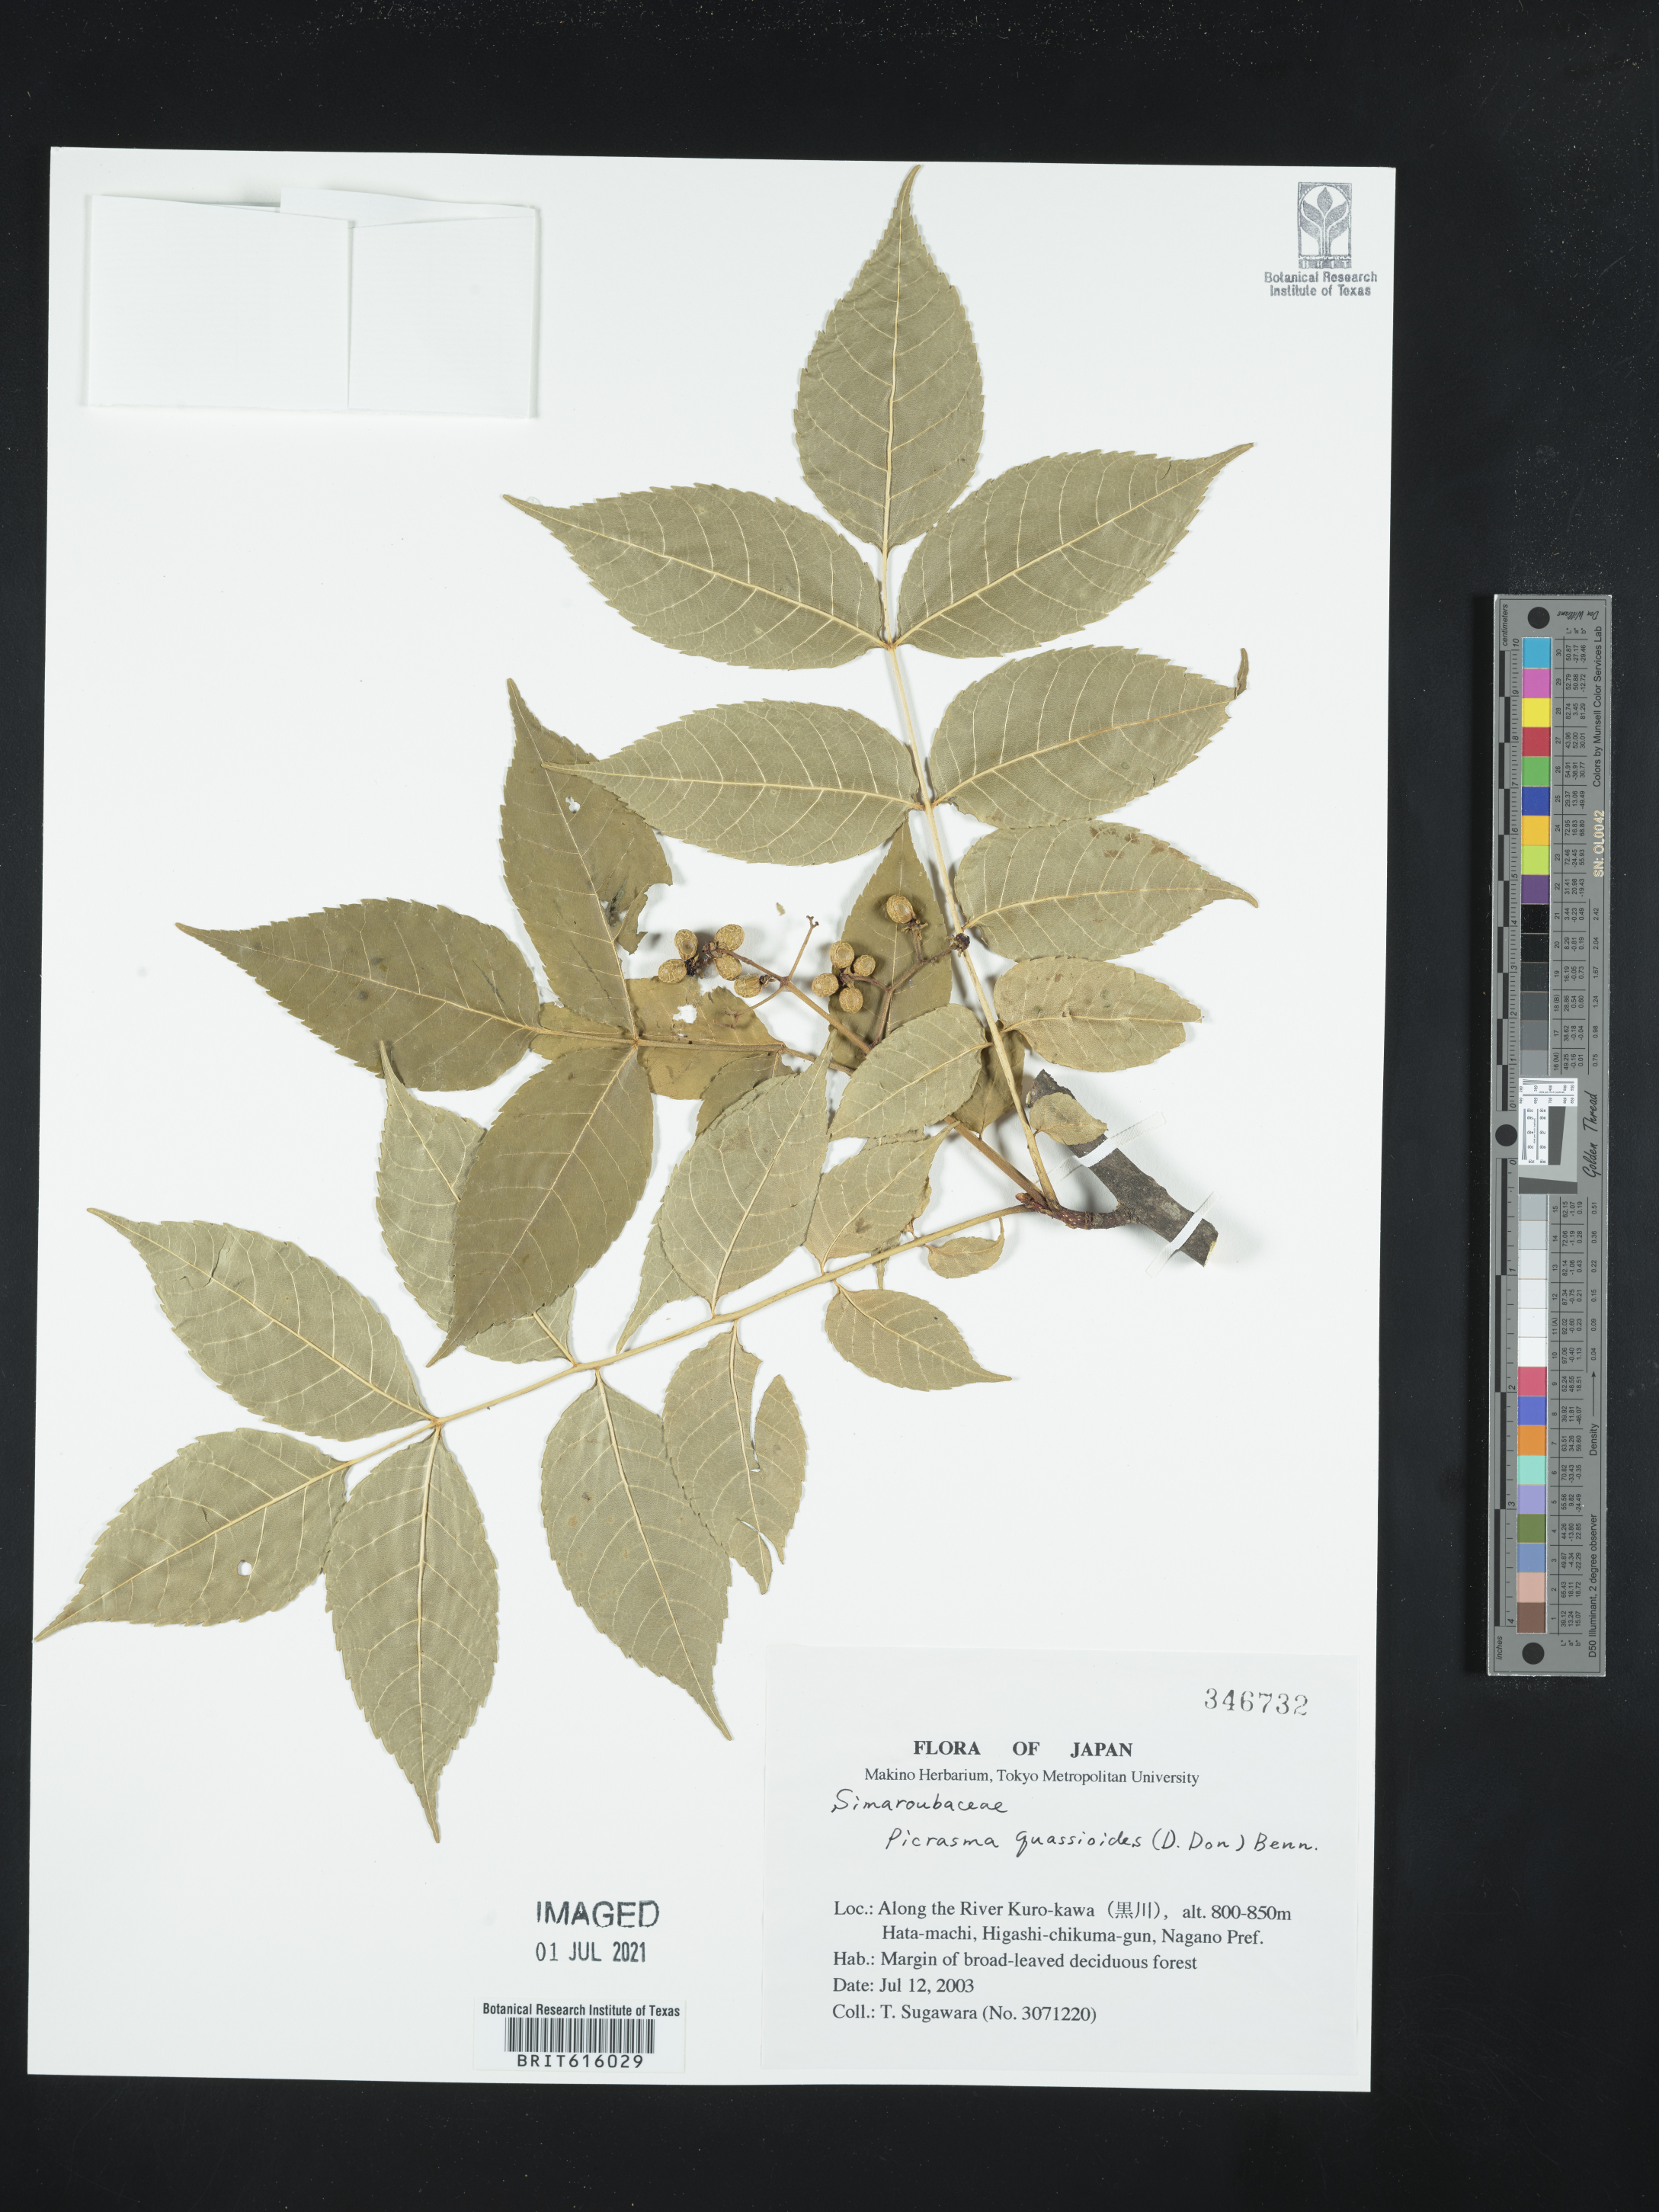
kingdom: Plantae
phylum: Tracheophyta
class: Magnoliopsida
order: Sapindales
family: Simaroubaceae
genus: Picrasma
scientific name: Picrasma quassioides
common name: Shurni
